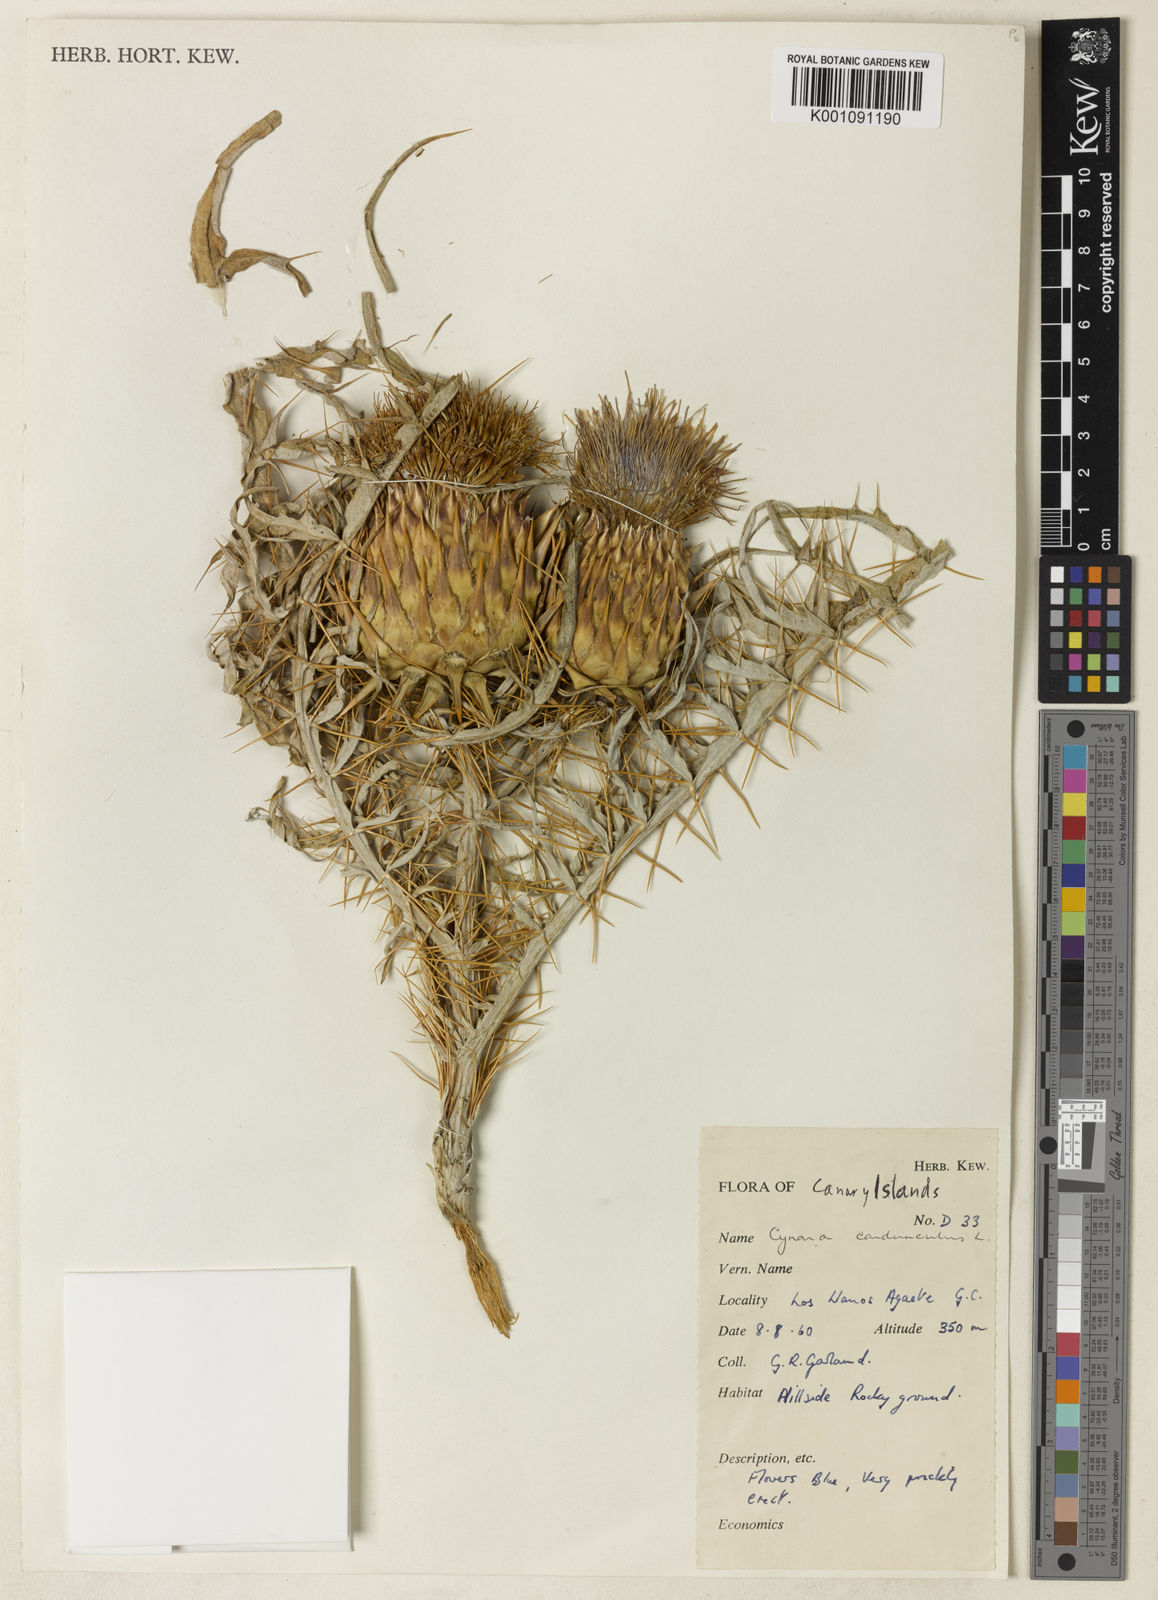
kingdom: Plantae
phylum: Tracheophyta
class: Magnoliopsida
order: Asterales
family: Asteraceae
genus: Cynara
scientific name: Cynara cardunculus
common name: Globe artichoke
